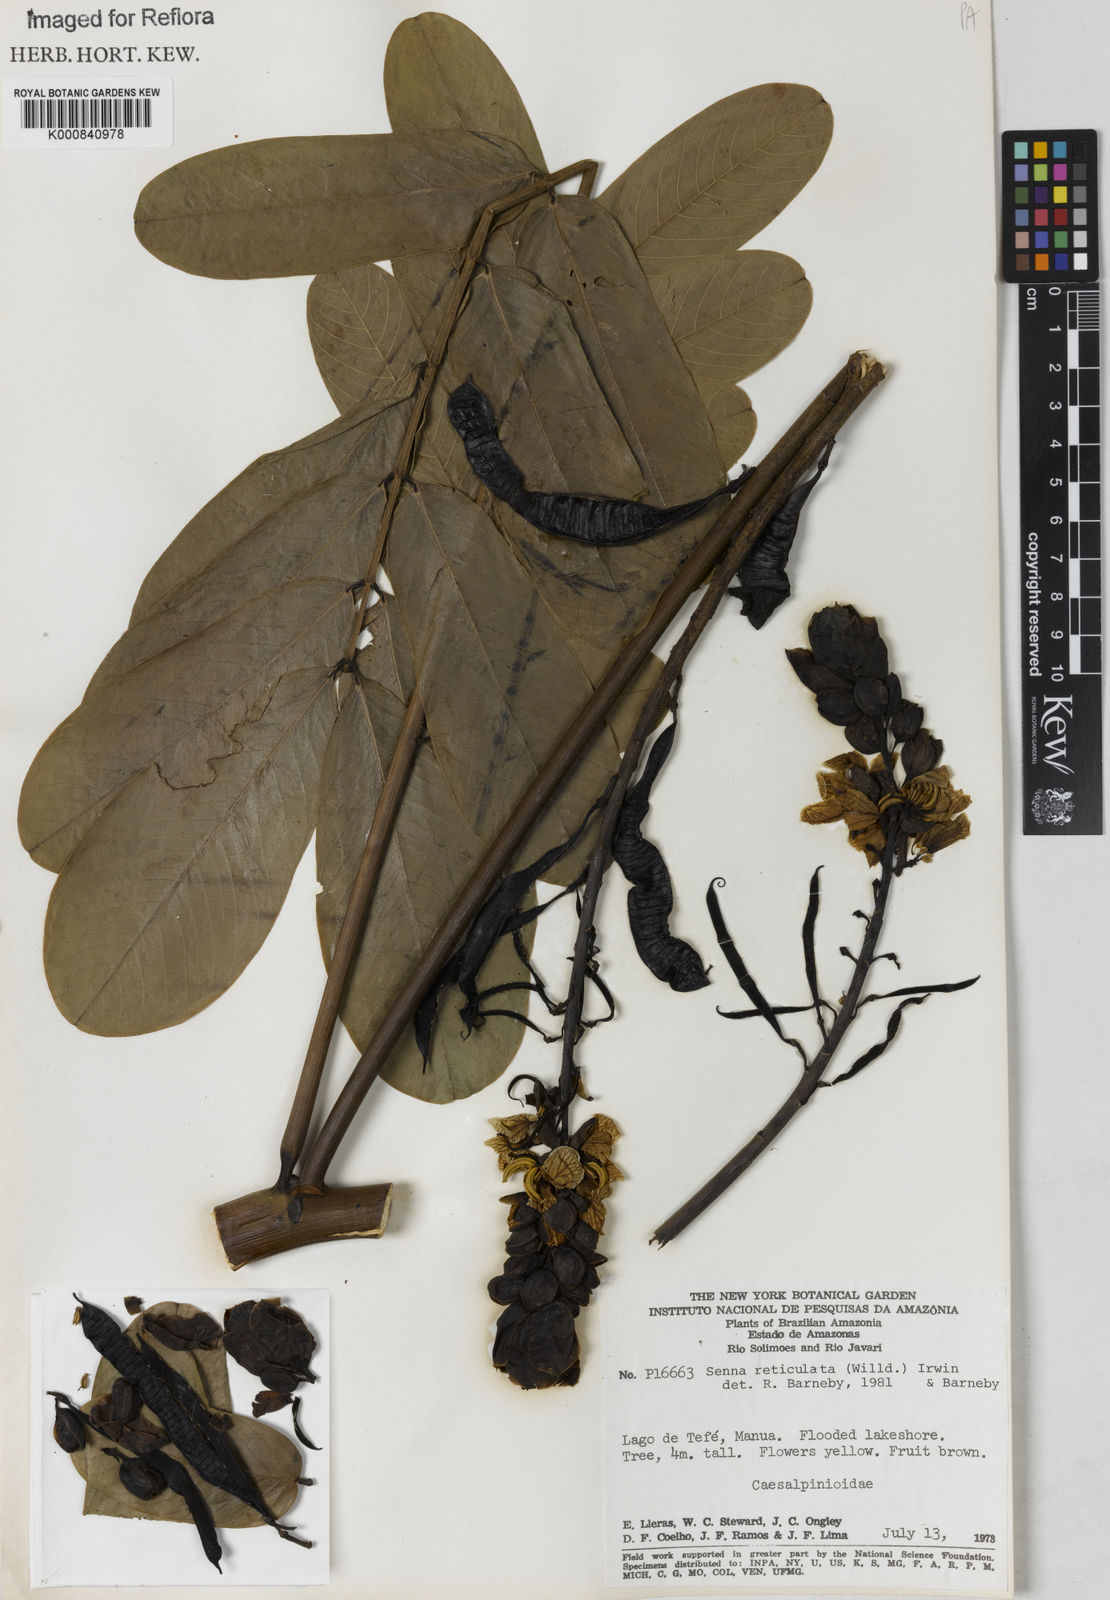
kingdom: Plantae
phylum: Tracheophyta
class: Magnoliopsida
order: Fabales
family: Fabaceae
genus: Senna
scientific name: Senna reticulata
